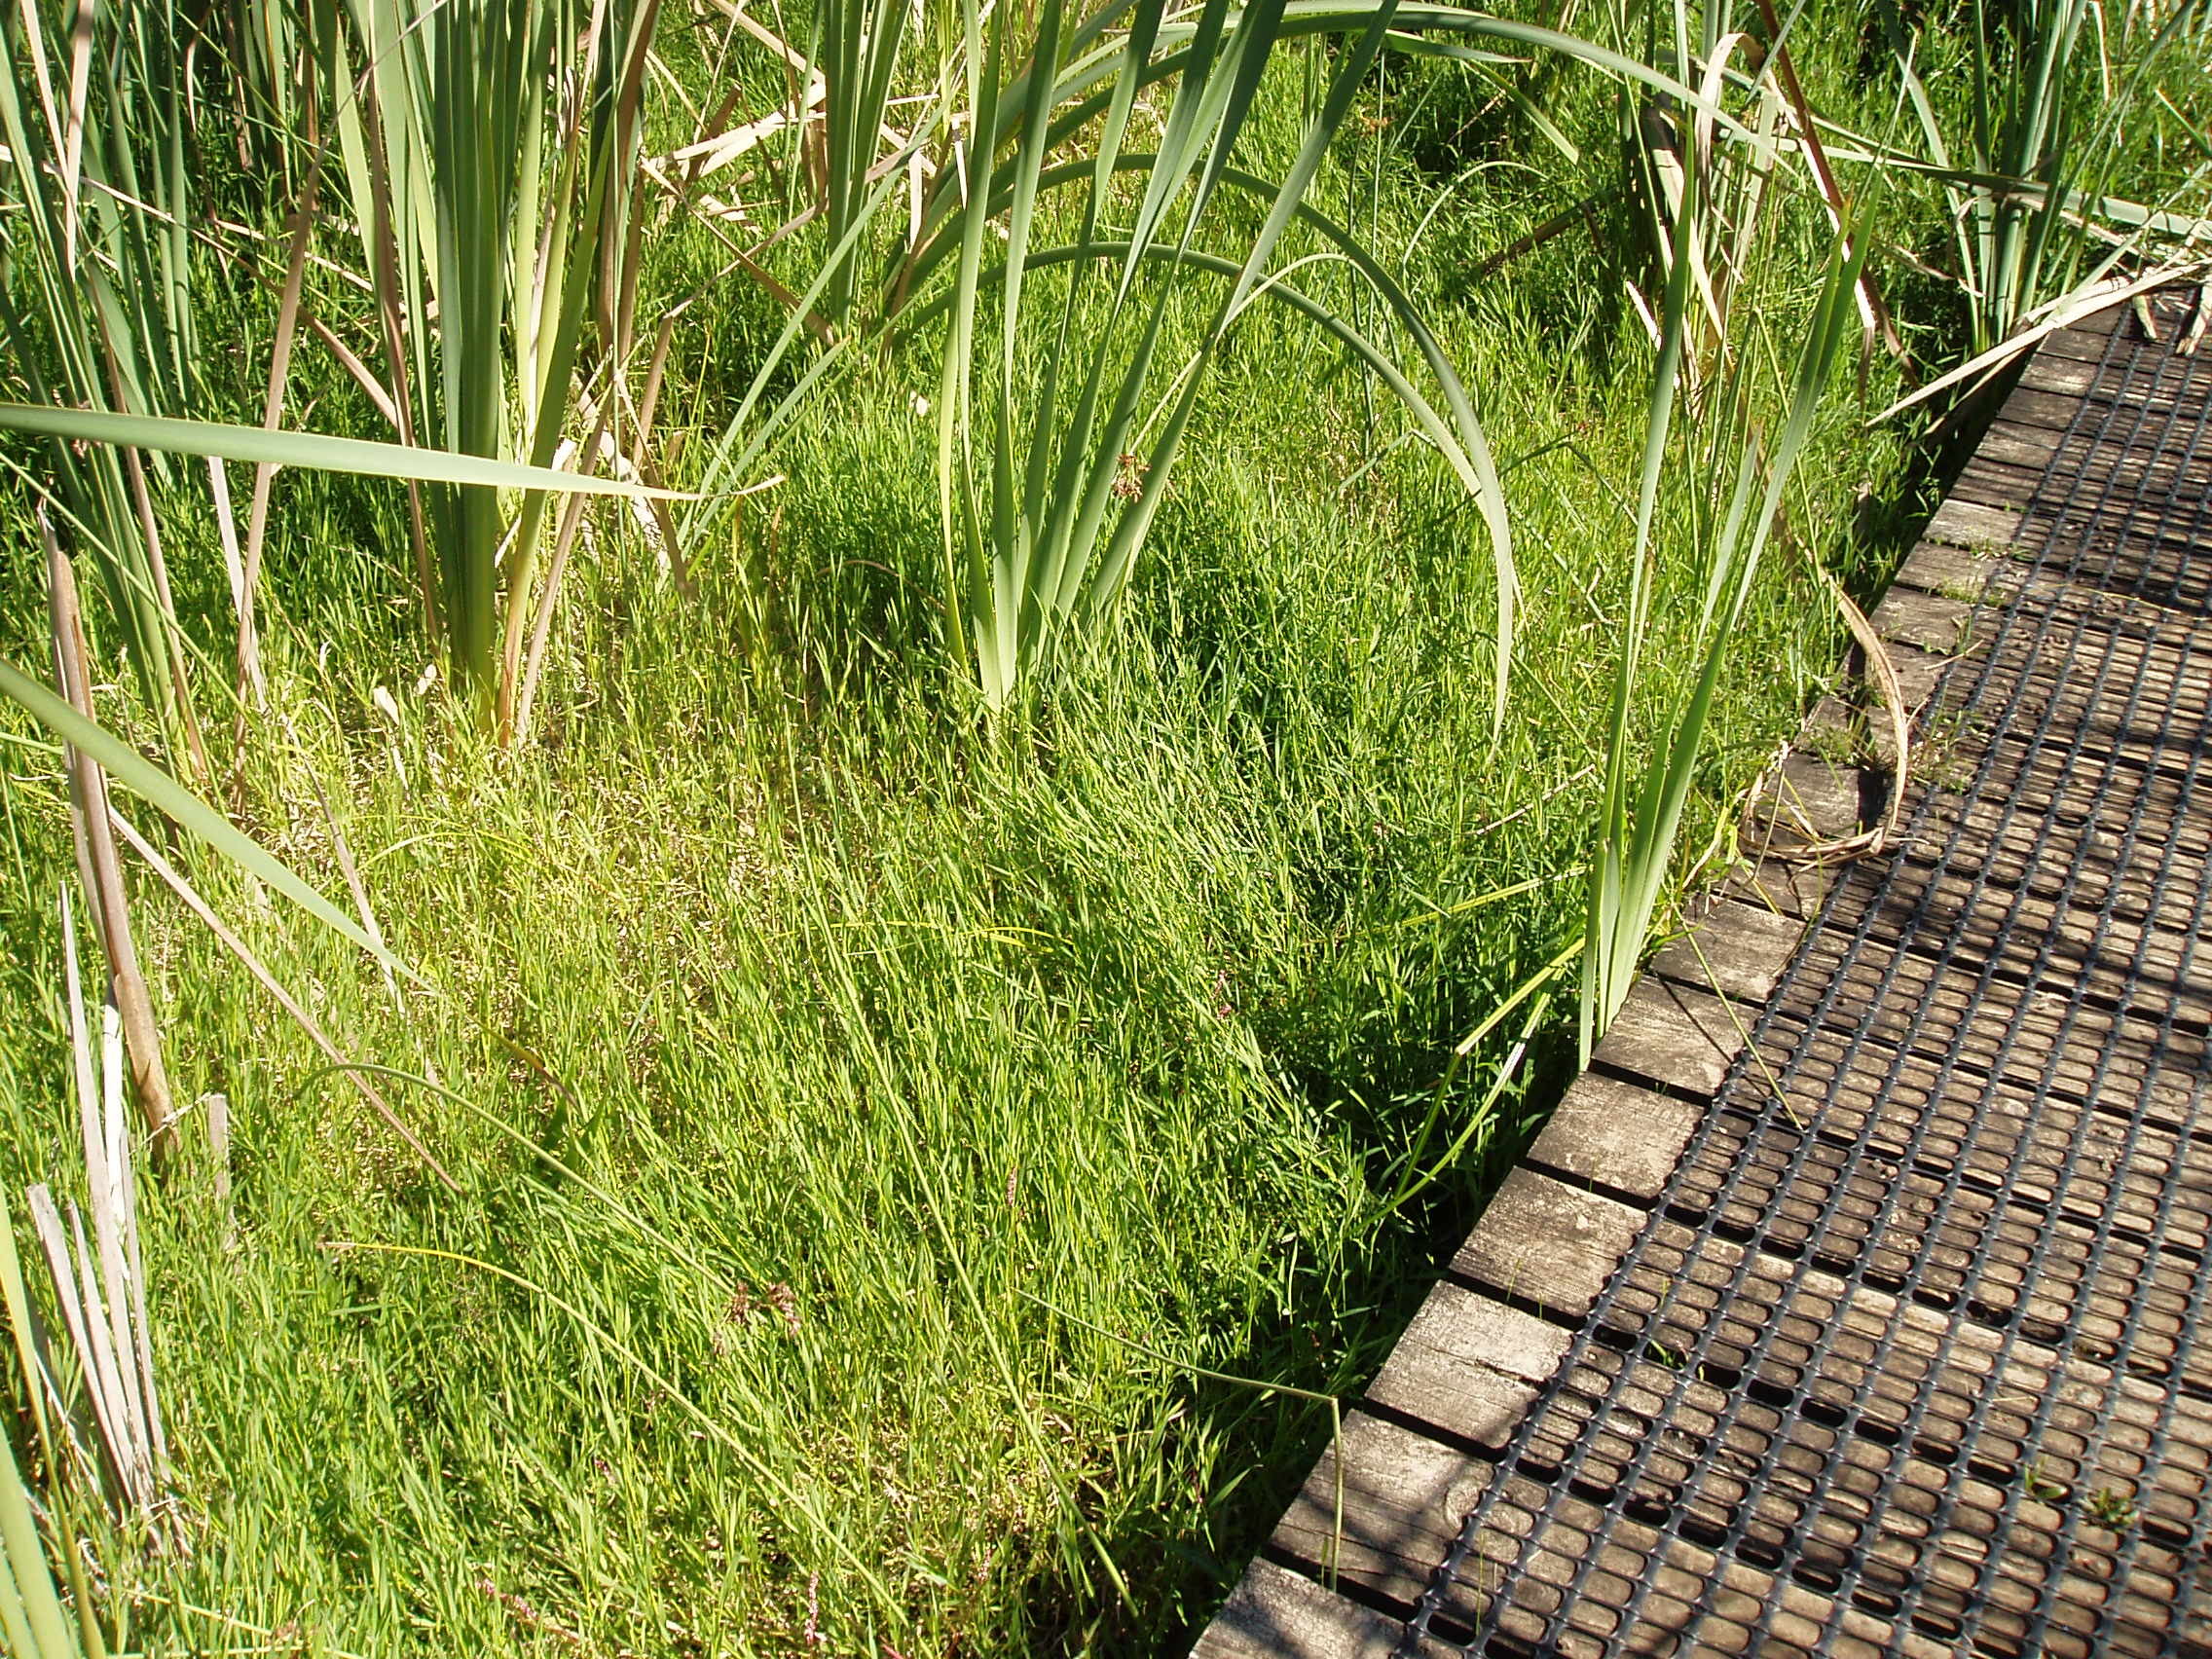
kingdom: Plantae
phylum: Tracheophyta
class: Magnoliopsida
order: Lamiales
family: Lamiaceae
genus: Mentha
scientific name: Mentha
